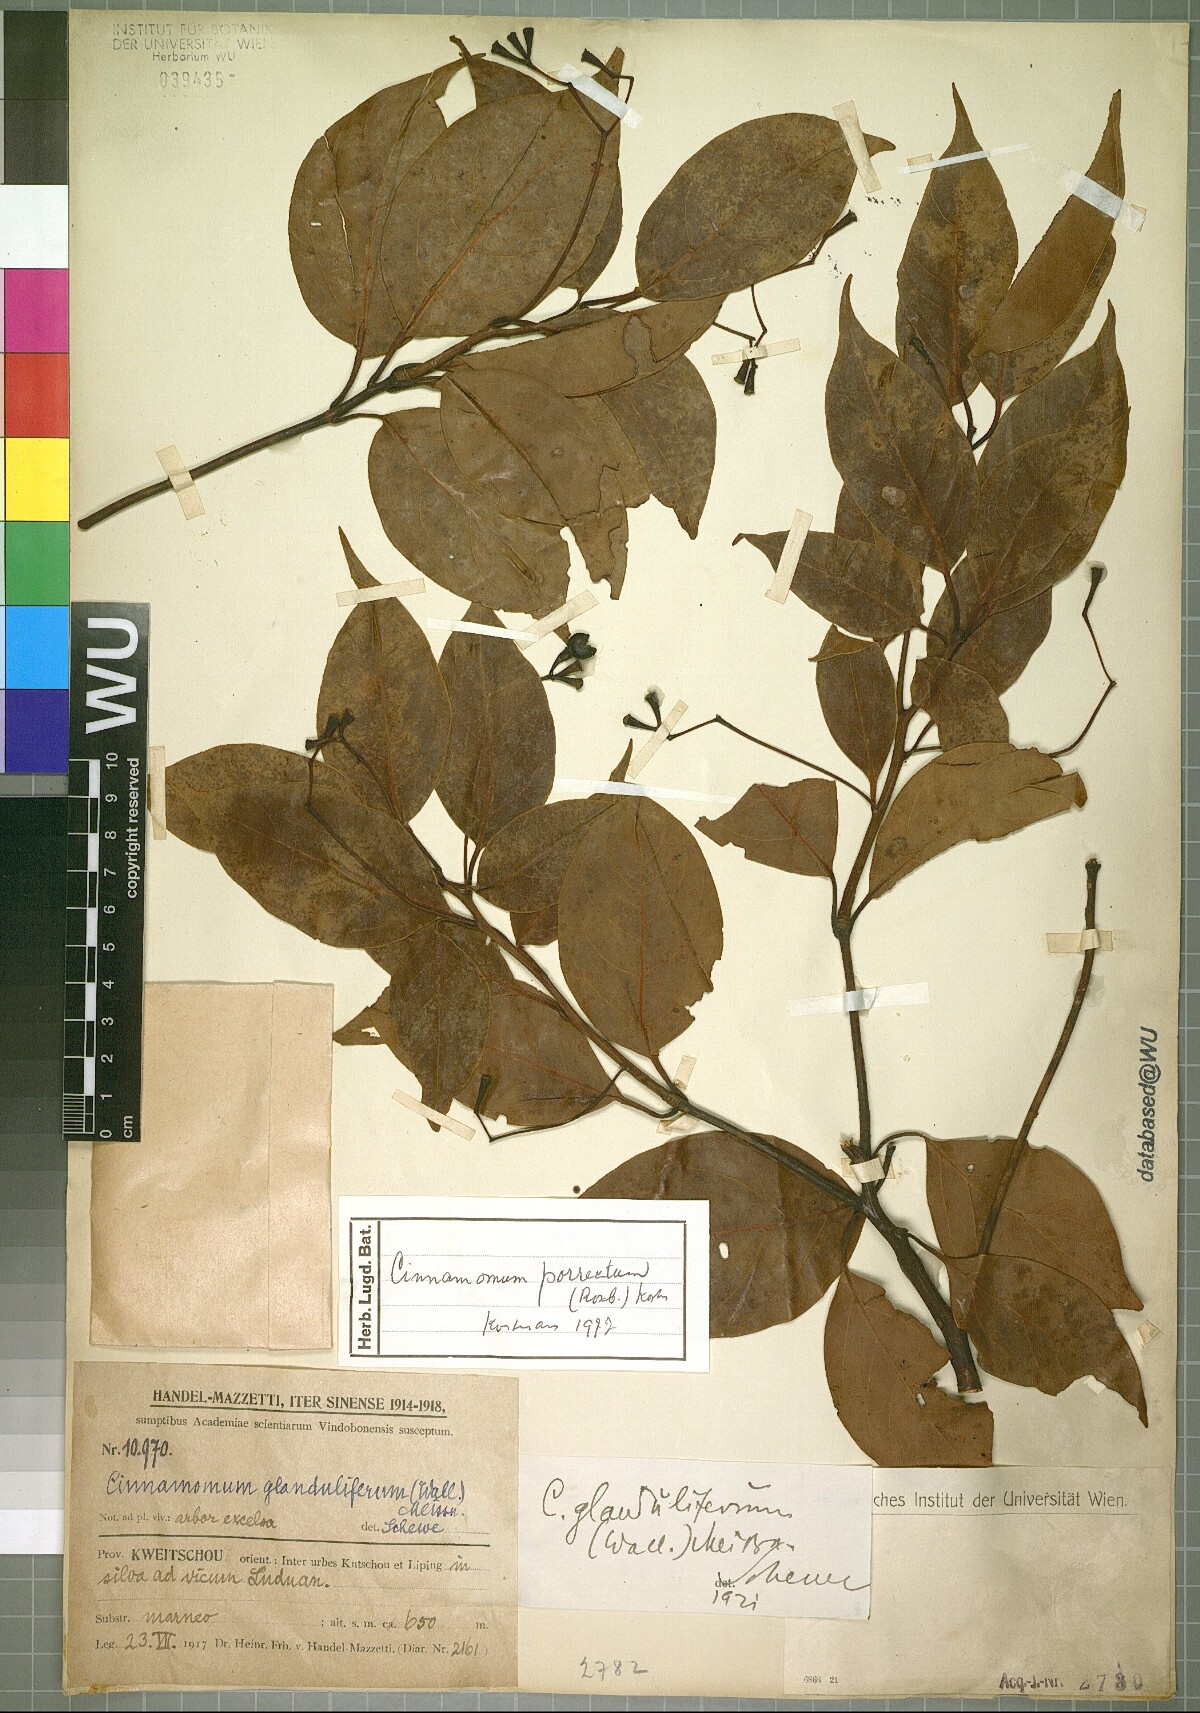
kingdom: Plantae
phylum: Tracheophyta
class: Magnoliopsida
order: Laurales
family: Lauraceae
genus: Cinnamomum
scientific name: Cinnamomum parthenoxylon
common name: Martaban camphor wood
